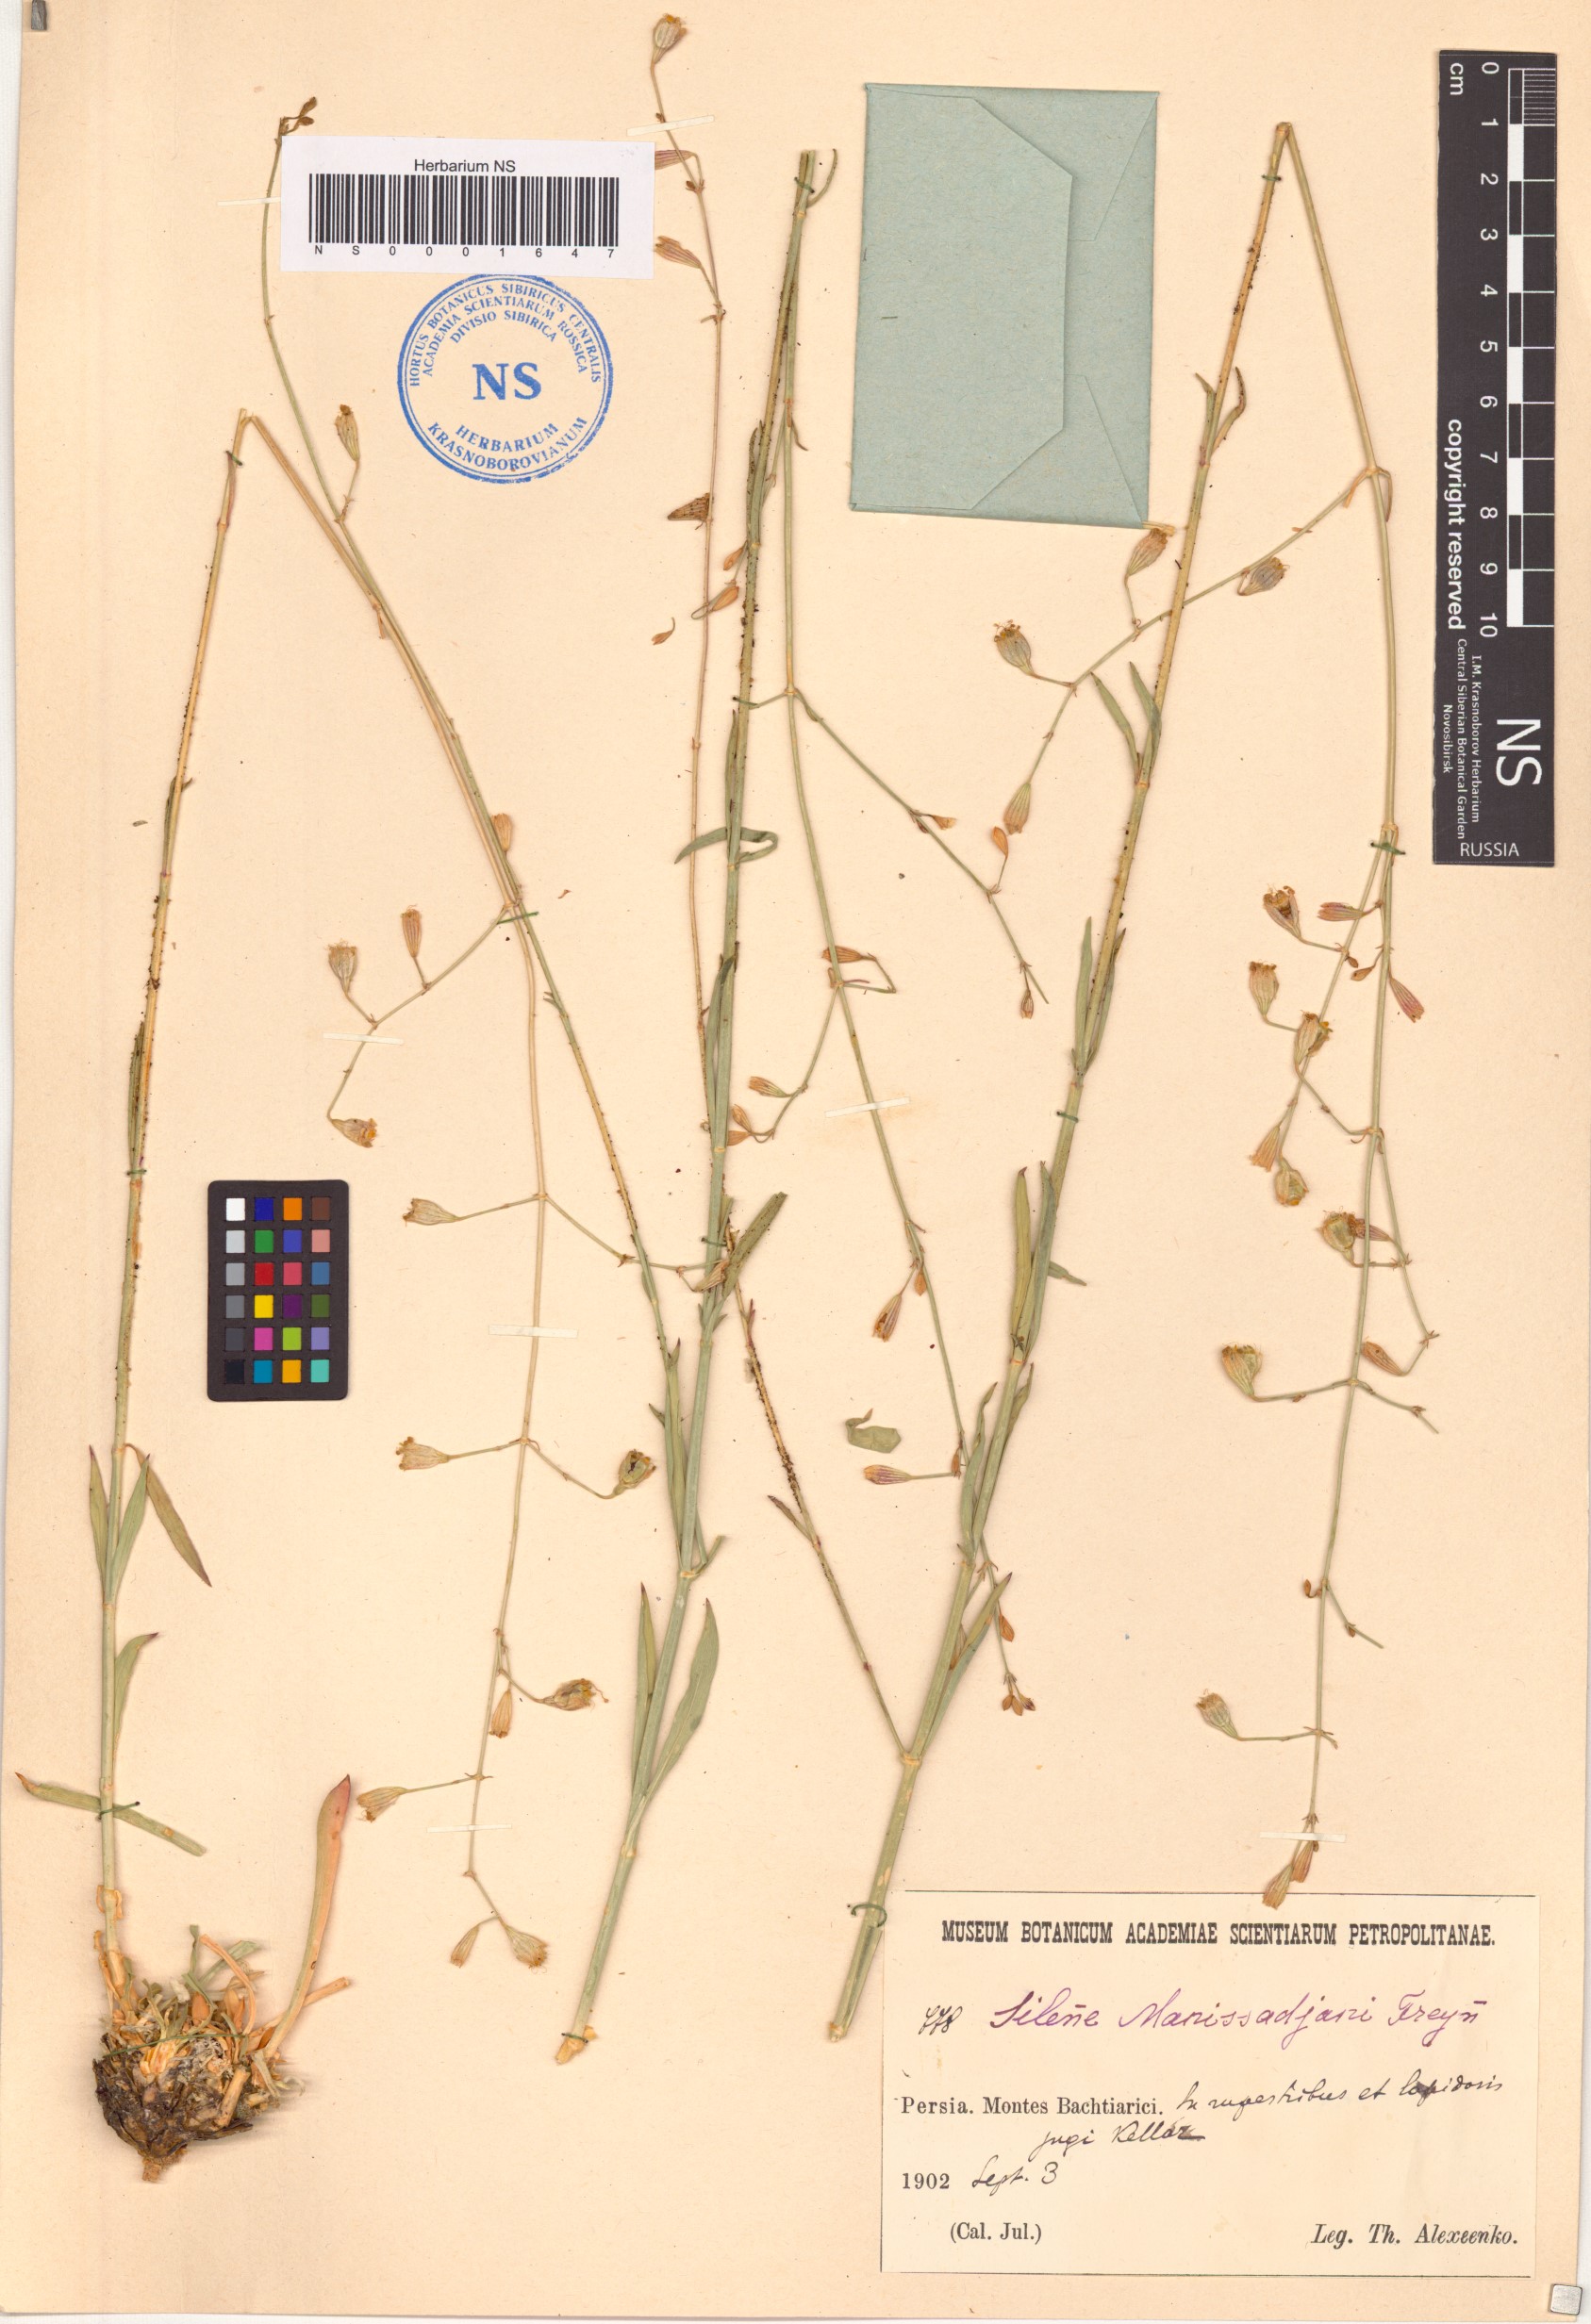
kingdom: Plantae
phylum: Tracheophyta
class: Magnoliopsida
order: Caryophyllales
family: Caryophyllaceae
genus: Silene
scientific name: Silene manissadjianii
